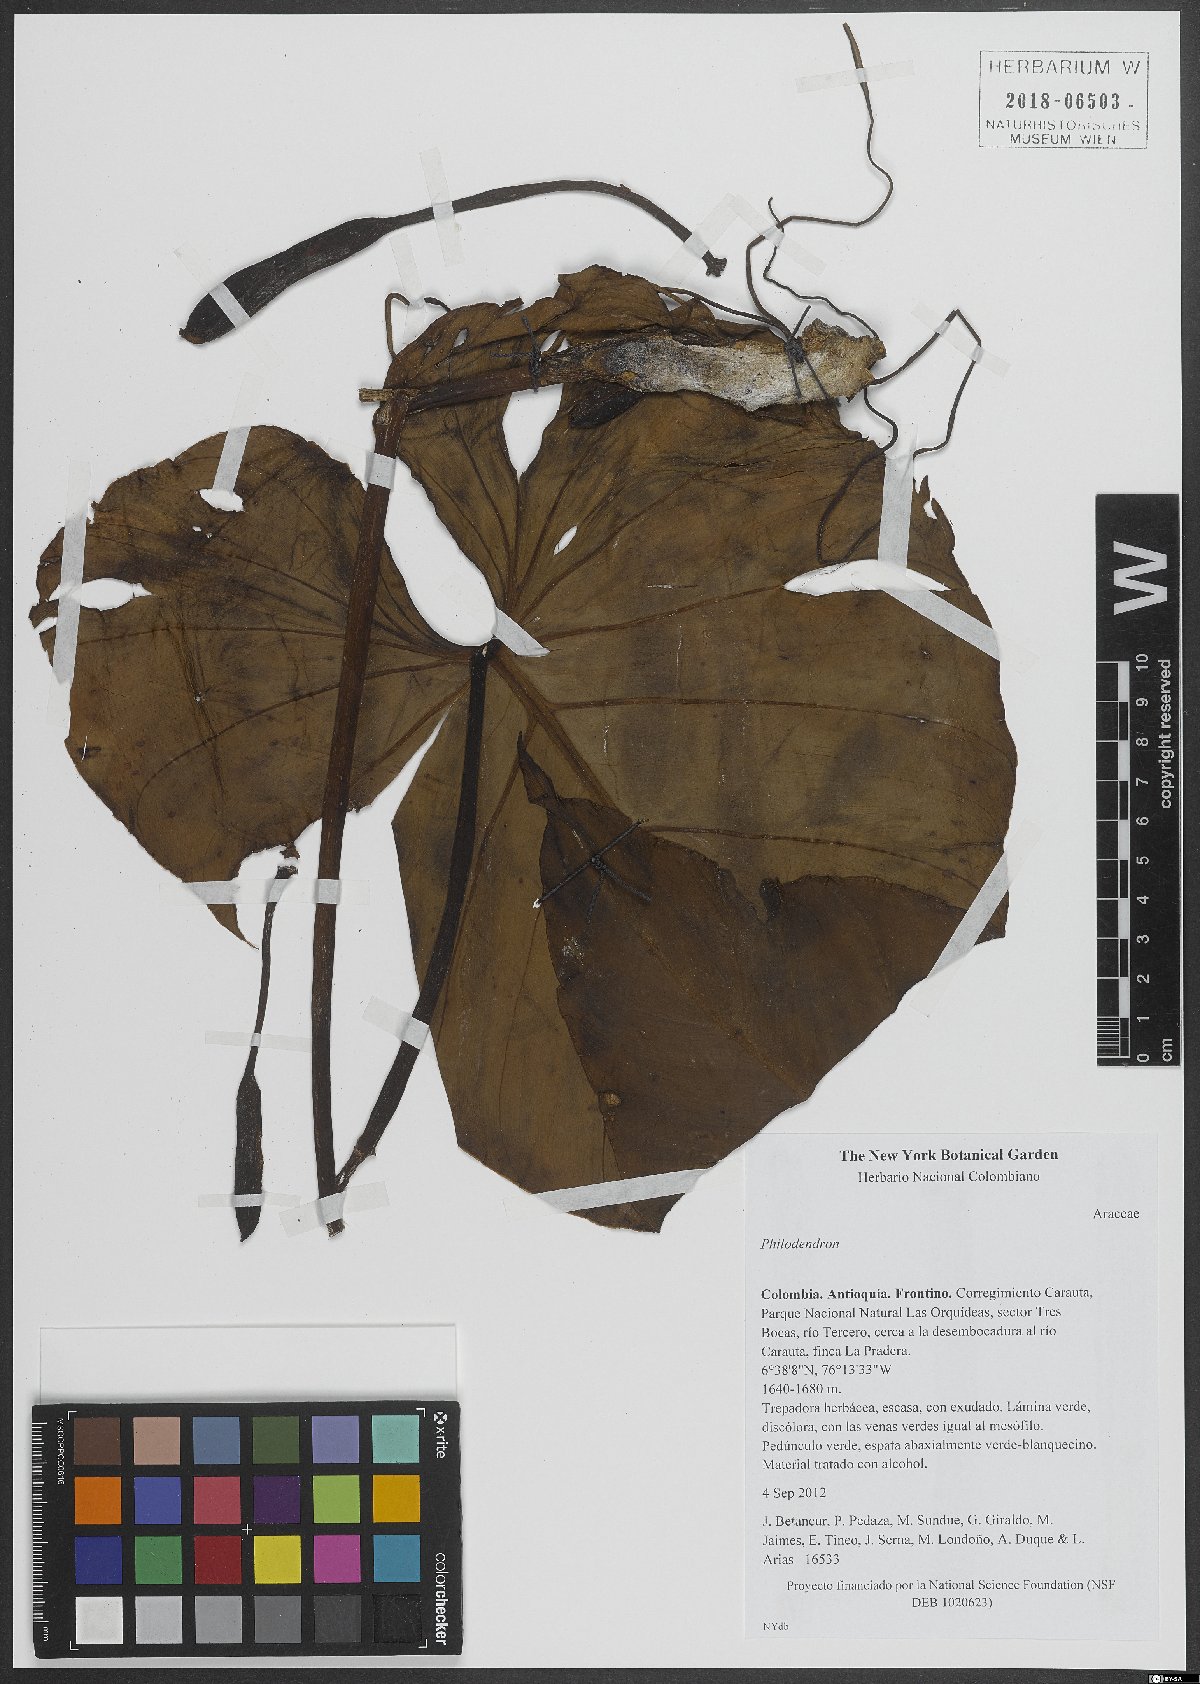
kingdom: Plantae
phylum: Tracheophyta
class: Liliopsida
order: Alismatales
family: Araceae
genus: Philodendron
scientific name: Philodendron
